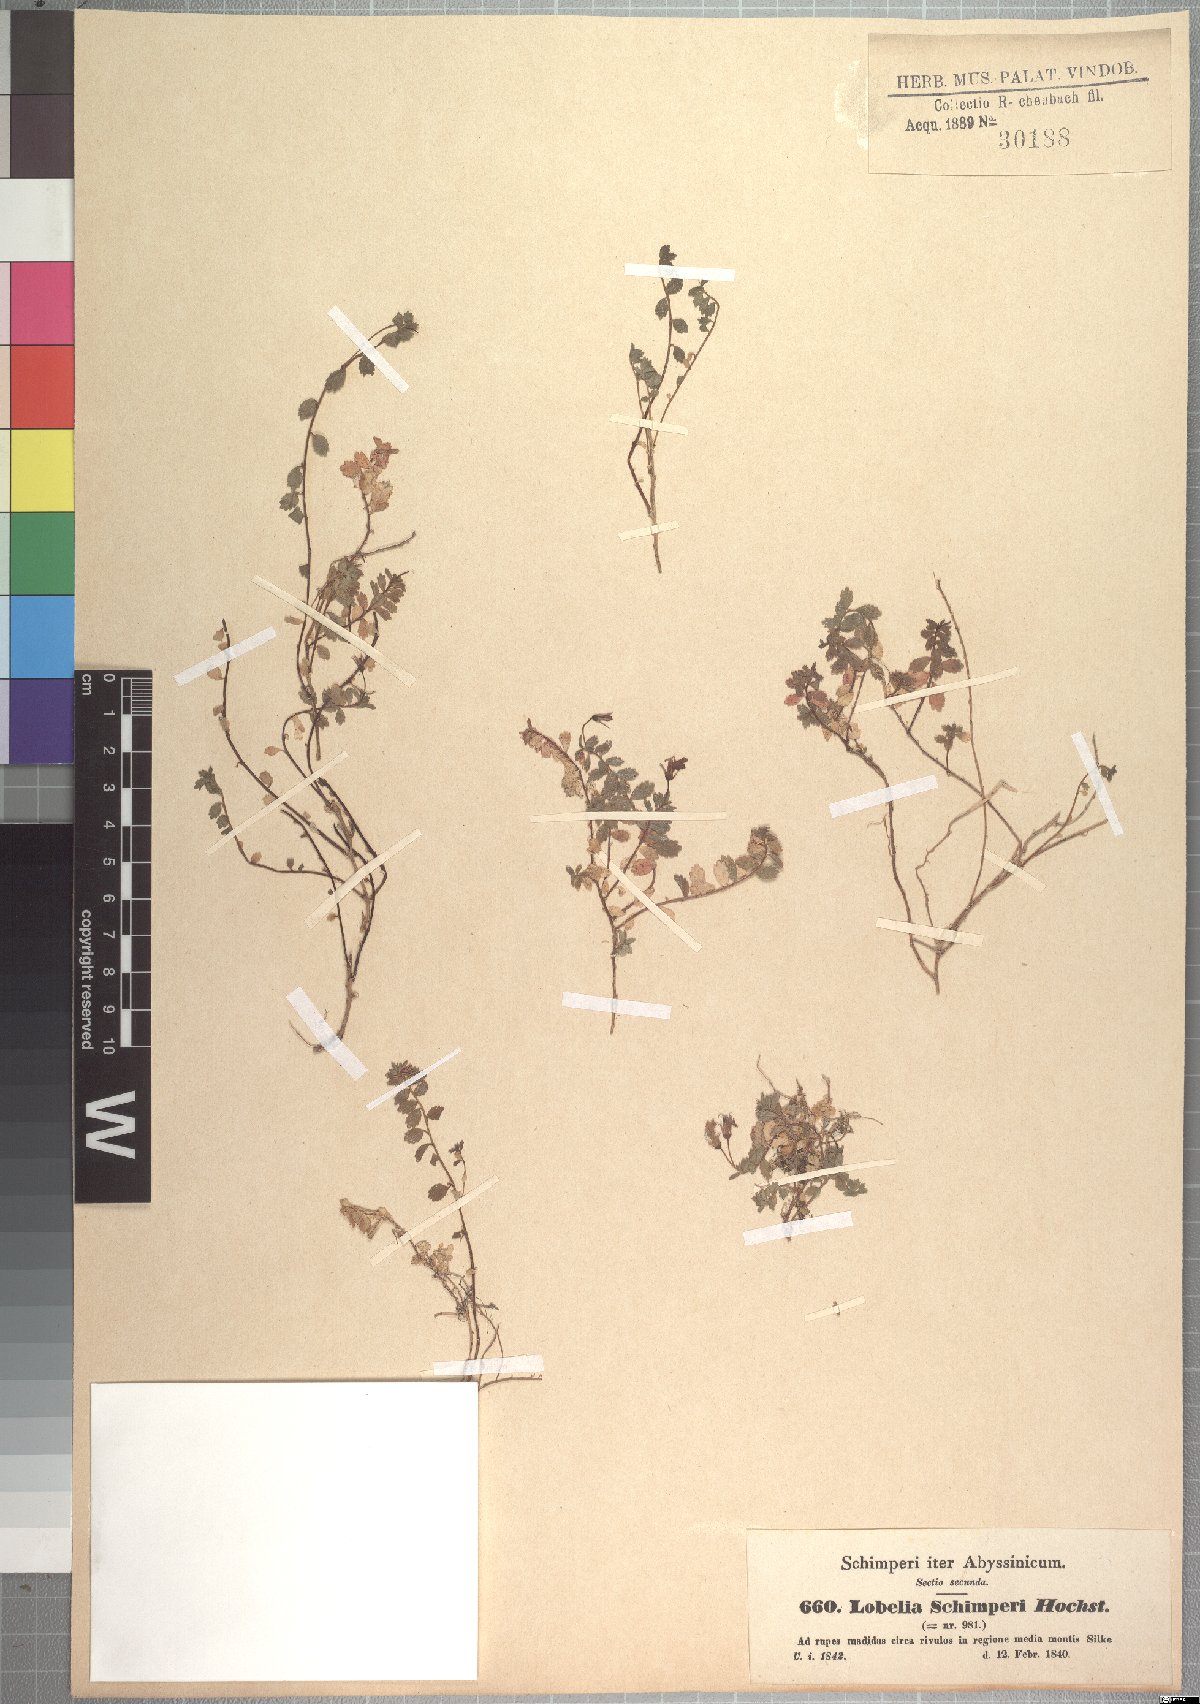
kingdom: Plantae
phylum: Tracheophyta
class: Magnoliopsida
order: Asterales
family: Campanulaceae
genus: Lobelia
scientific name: Lobelia schimperi
